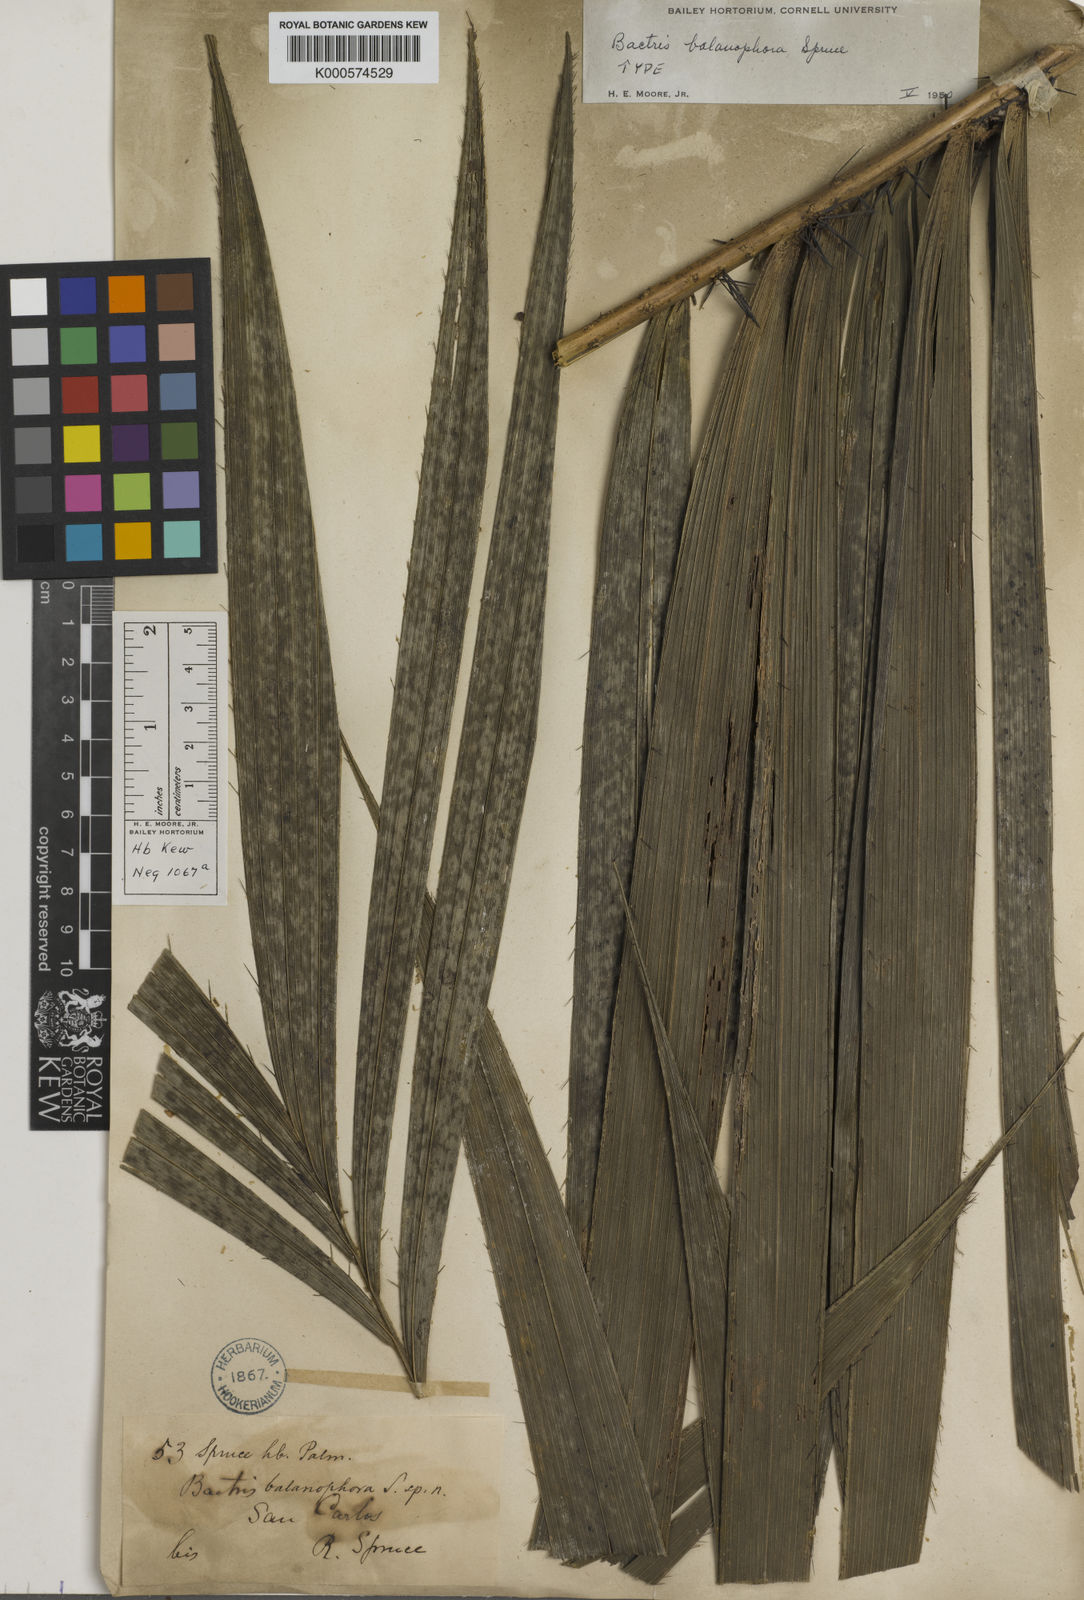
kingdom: Plantae
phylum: Tracheophyta
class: Liliopsida
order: Arecales
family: Arecaceae
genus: Bactris
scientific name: Bactris balanophora
